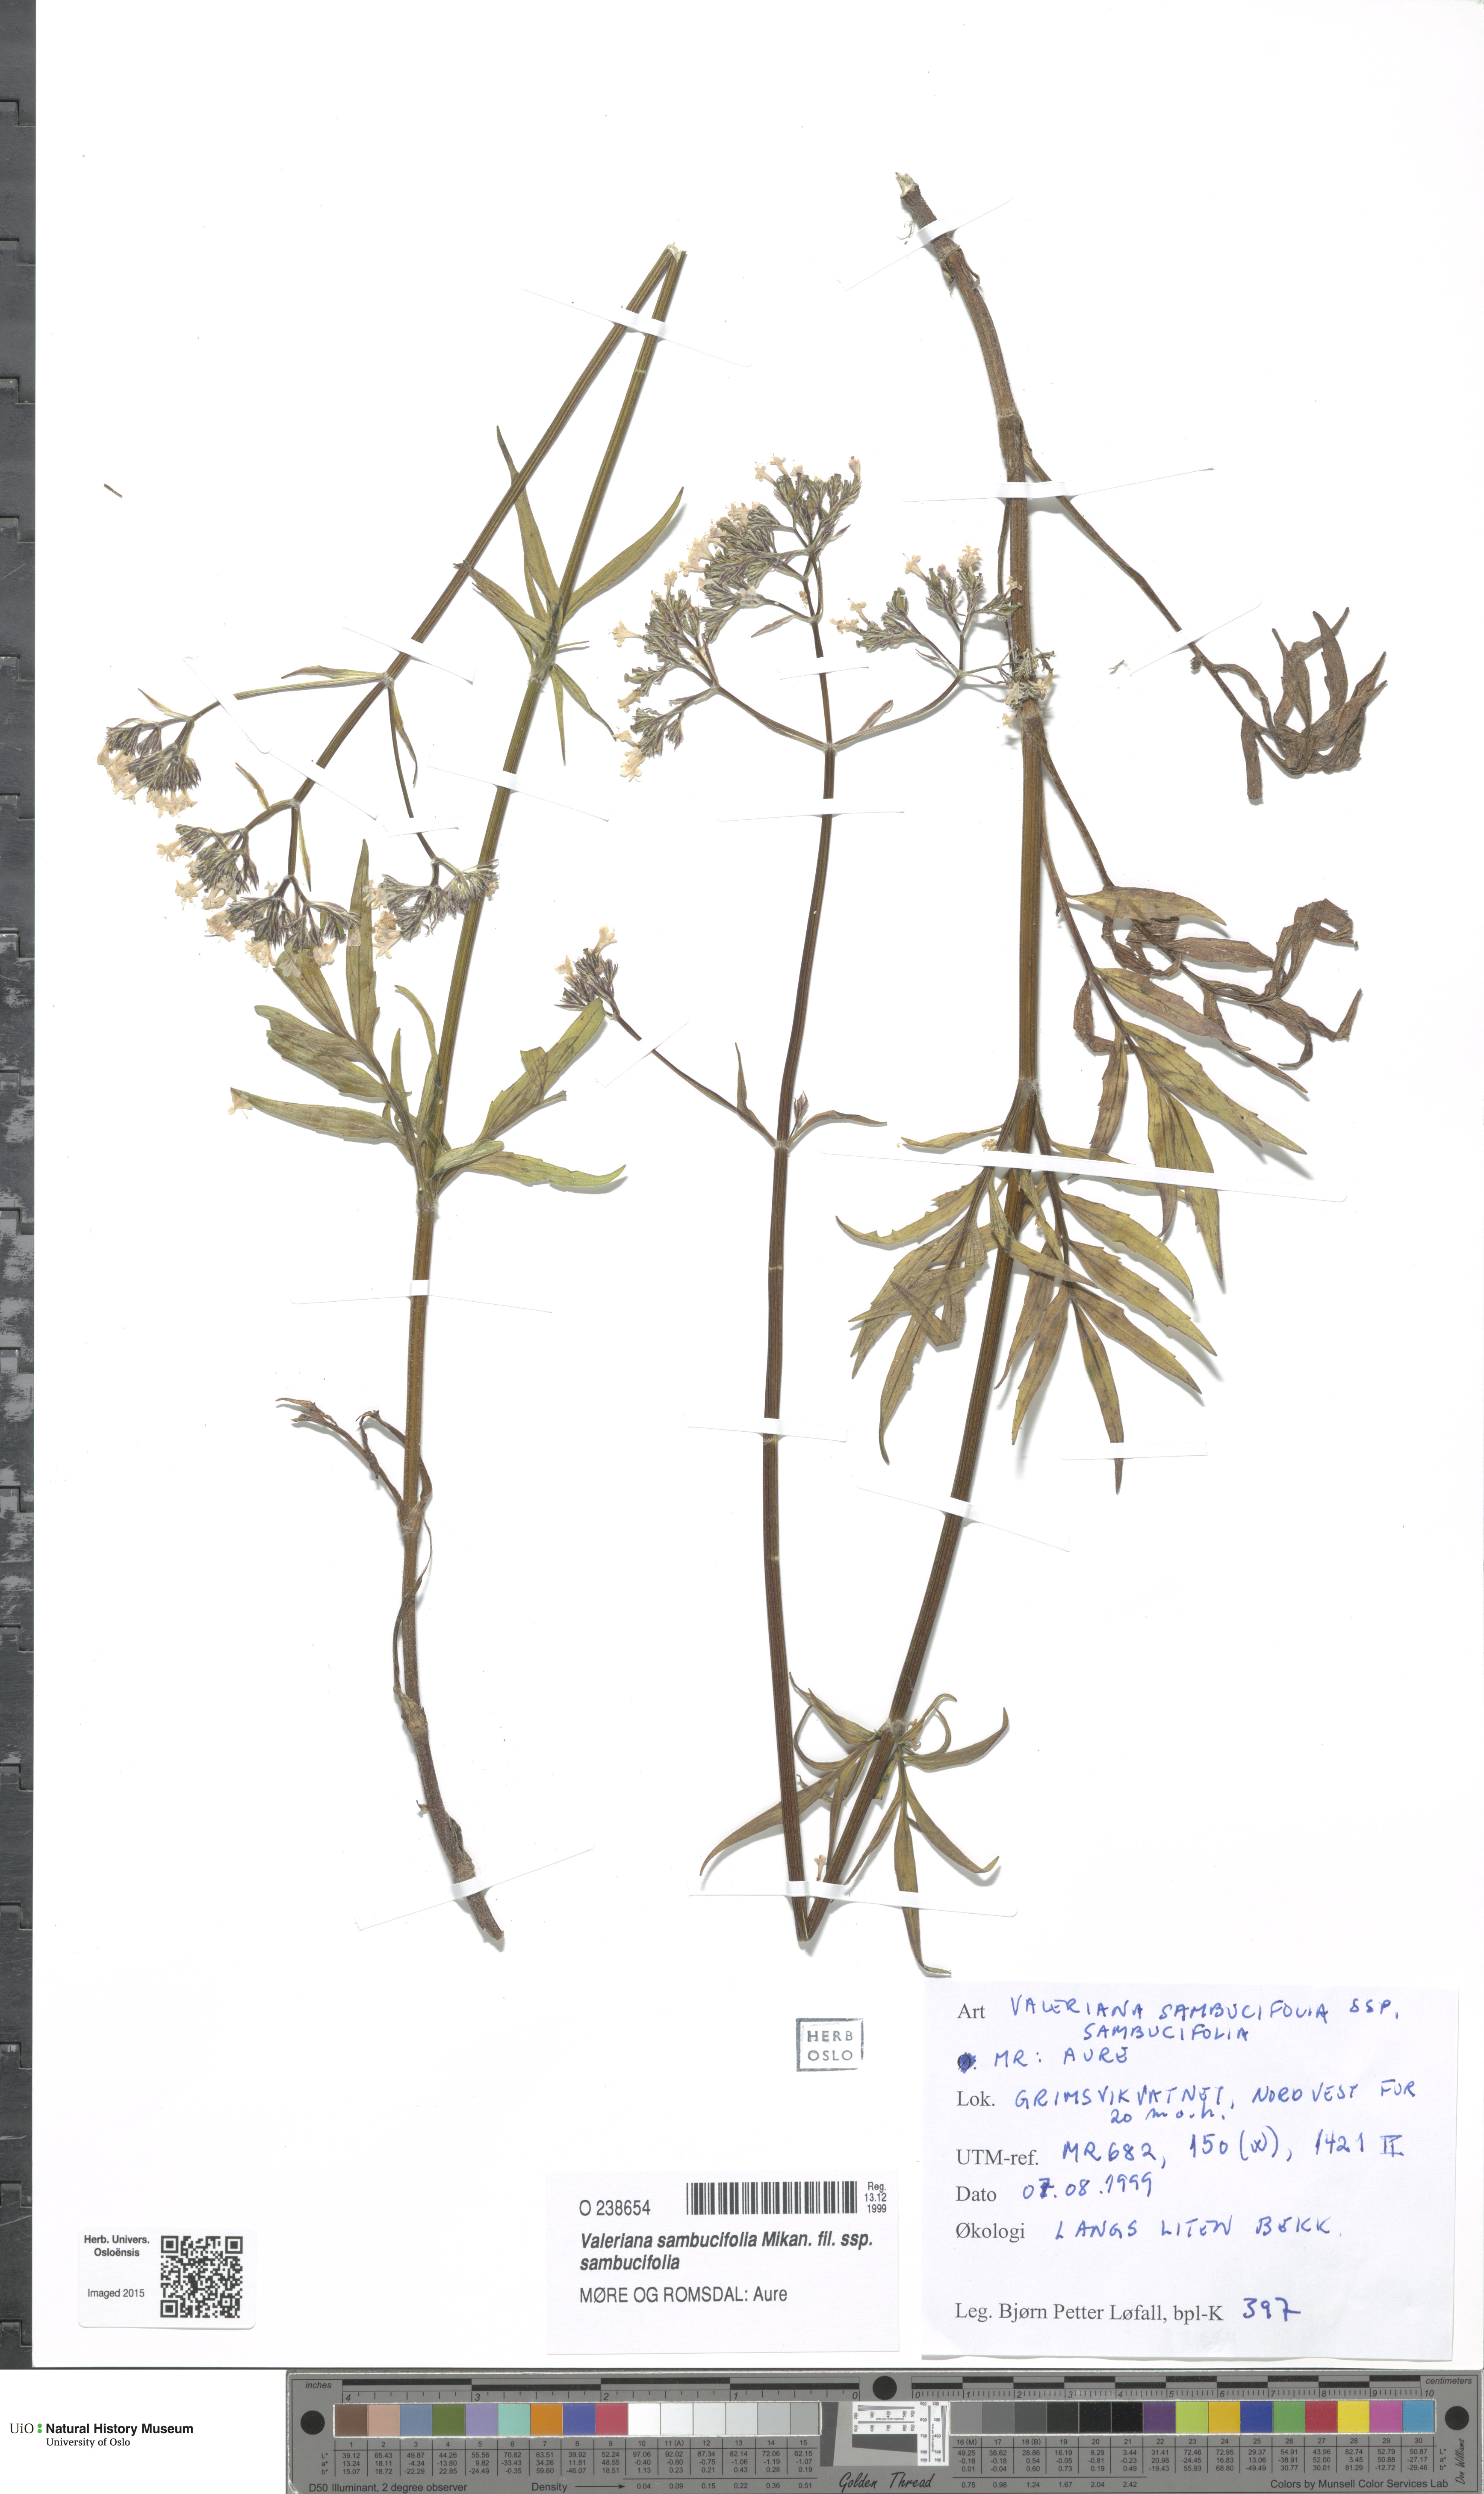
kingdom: Plantae
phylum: Tracheophyta
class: Magnoliopsida
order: Dipsacales
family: Caprifoliaceae
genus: Valeriana
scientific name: Valeriana sambucifolia
